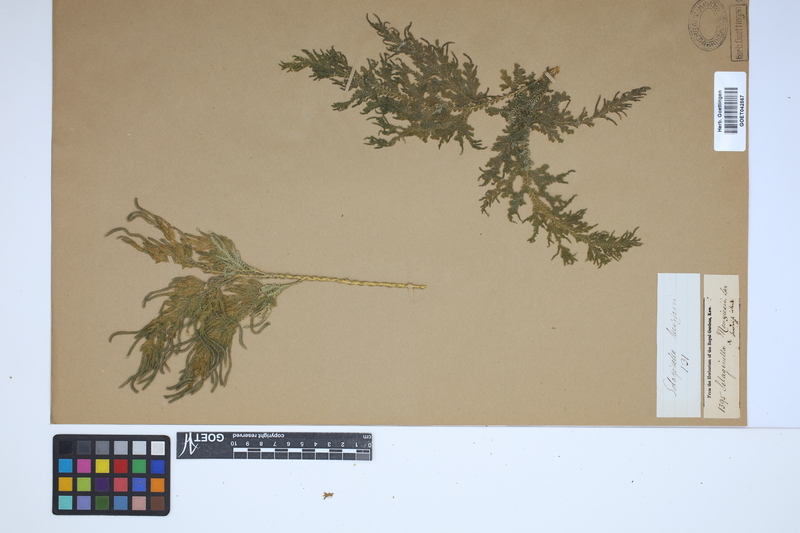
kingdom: Plantae
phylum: Tracheophyta
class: Lycopodiopsida
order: Selaginellales
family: Selaginellaceae
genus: Selaginella
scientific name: Selaginella menziesii
